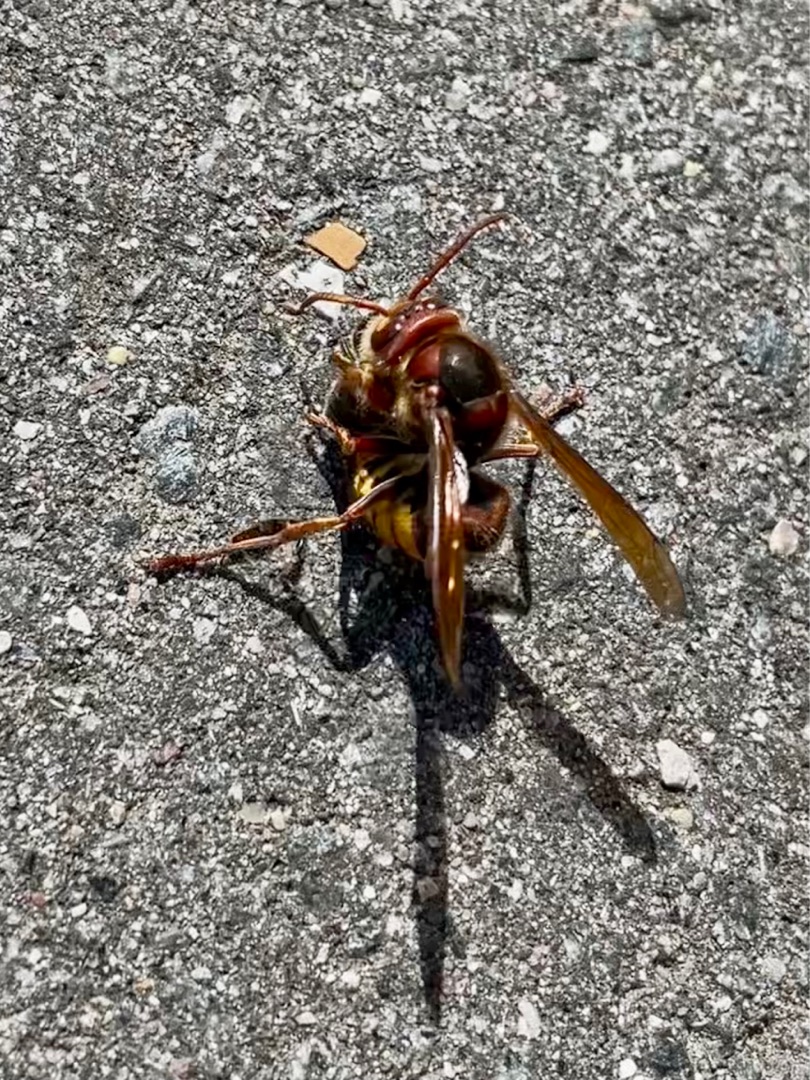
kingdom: Animalia
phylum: Arthropoda
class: Insecta
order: Hymenoptera
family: Vespidae
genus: Vespa
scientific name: Vespa crabro
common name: Stor gedehams
